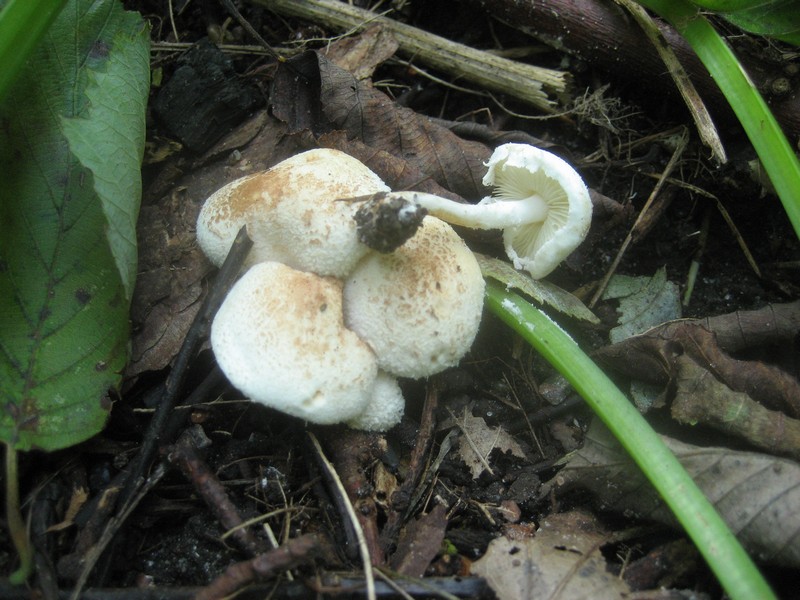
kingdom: Fungi
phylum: Basidiomycota
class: Agaricomycetes
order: Agaricales
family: Agaricaceae
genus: Cystolepiota
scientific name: Cystolepiota hetieri
